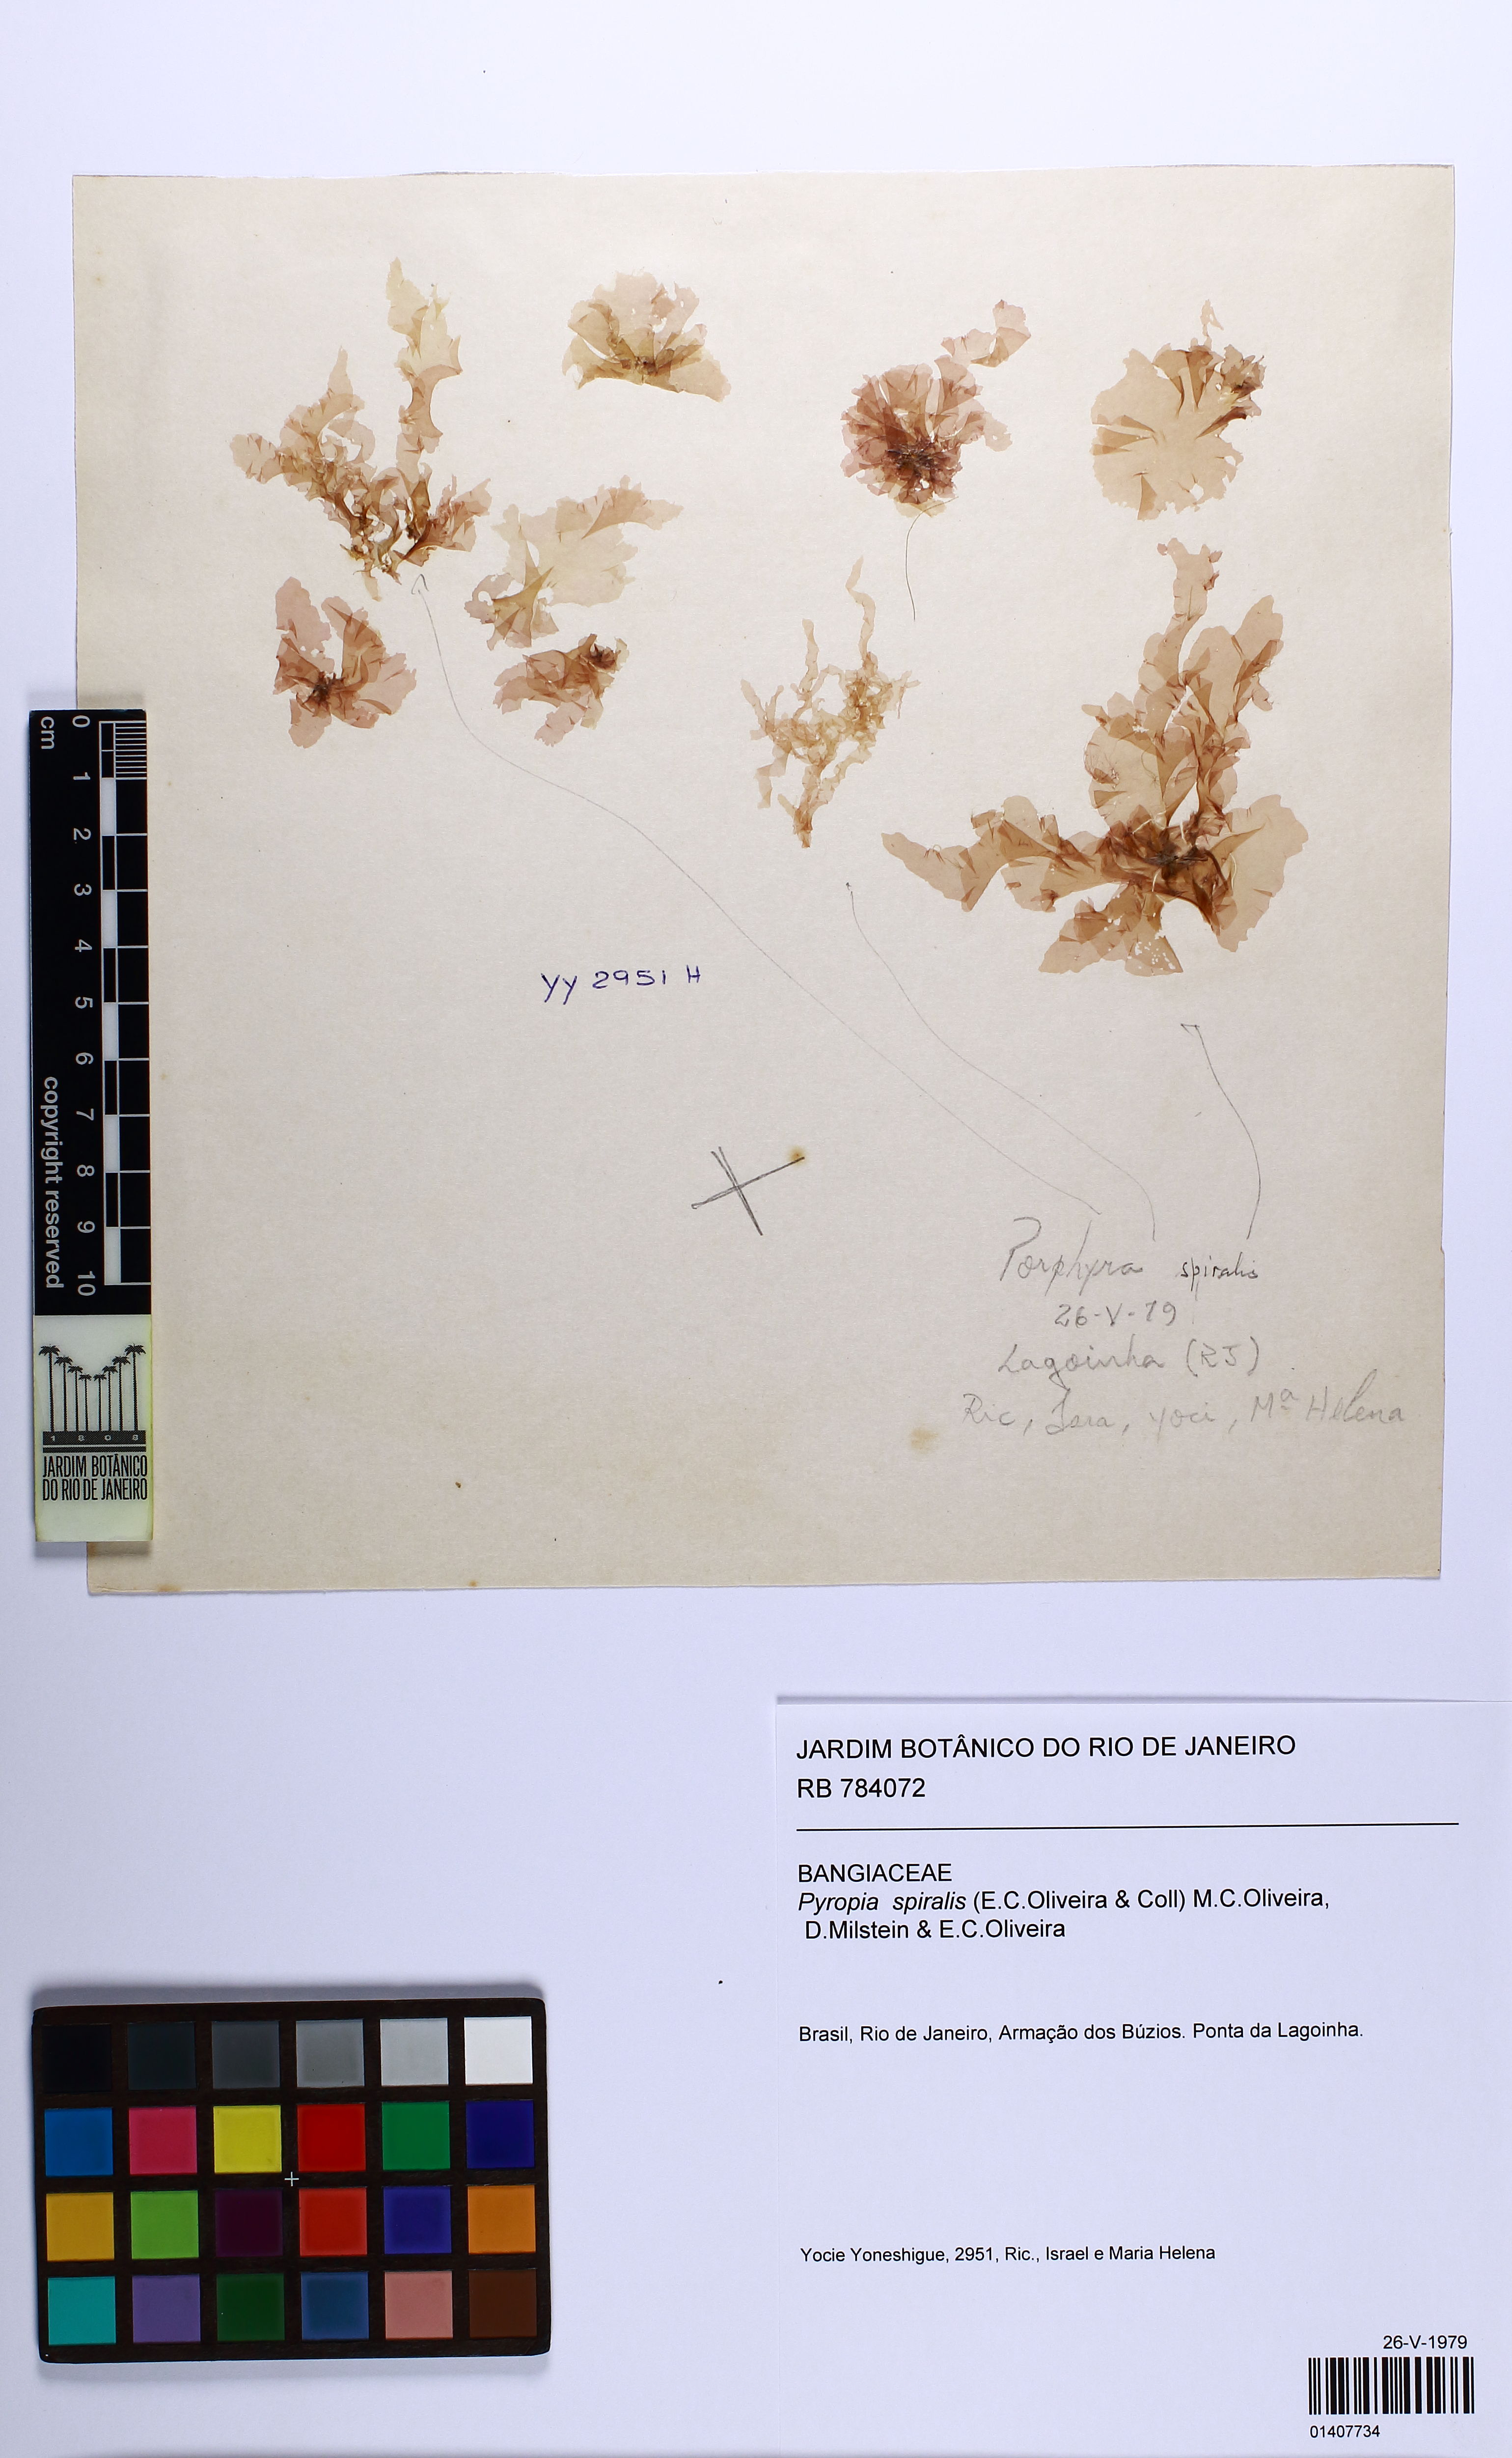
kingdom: Plantae
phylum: Rhodophyta
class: Bangiophyceae
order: Bangiales
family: Bangiaceae
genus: Pyropia
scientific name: Pyropia spiralis
